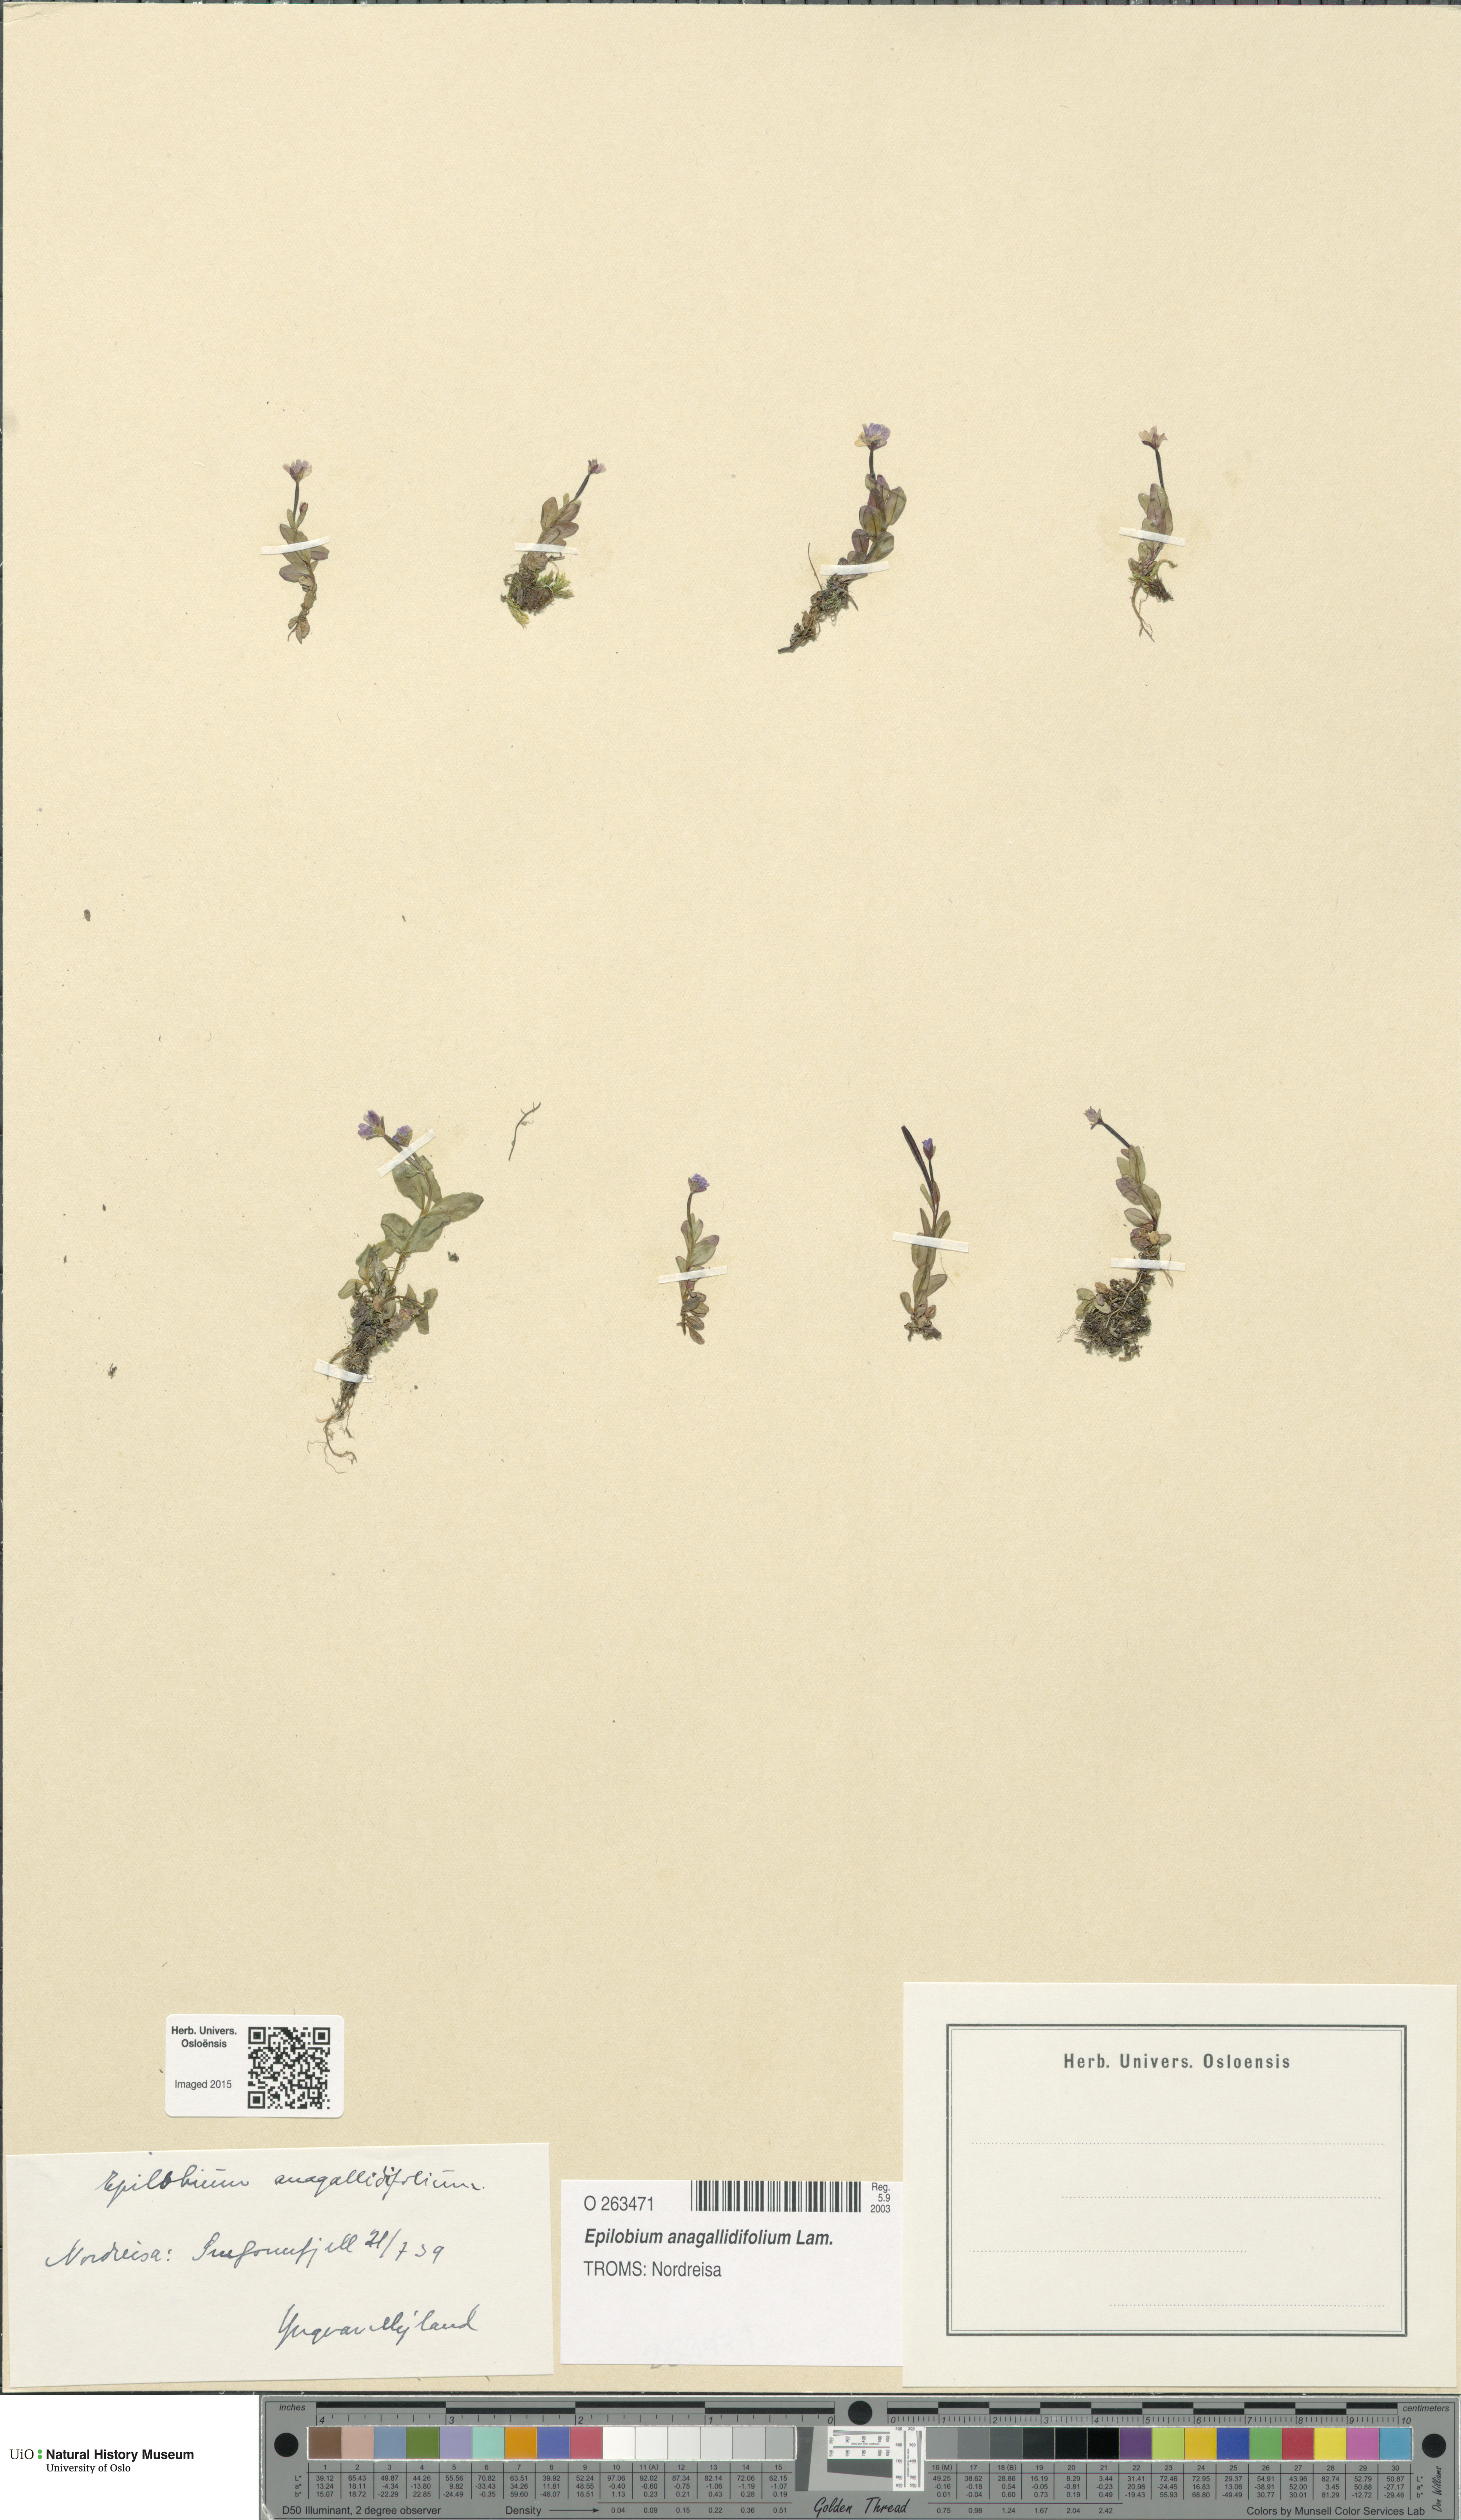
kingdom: Plantae
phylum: Tracheophyta
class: Magnoliopsida
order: Myrtales
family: Onagraceae
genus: Epilobium
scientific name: Epilobium anagallidifolium
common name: Alpine willowherb
